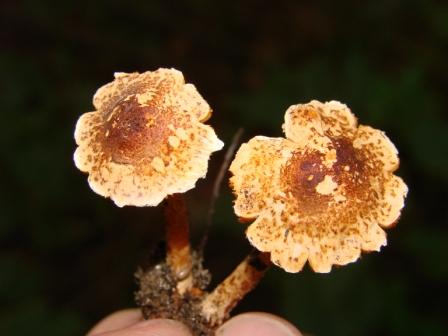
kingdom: Fungi
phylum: Basidiomycota
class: Agaricomycetes
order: Agaricales
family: Agaricaceae
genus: Lepiota
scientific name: Lepiota castanea
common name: kastaniebrun parasolhat
